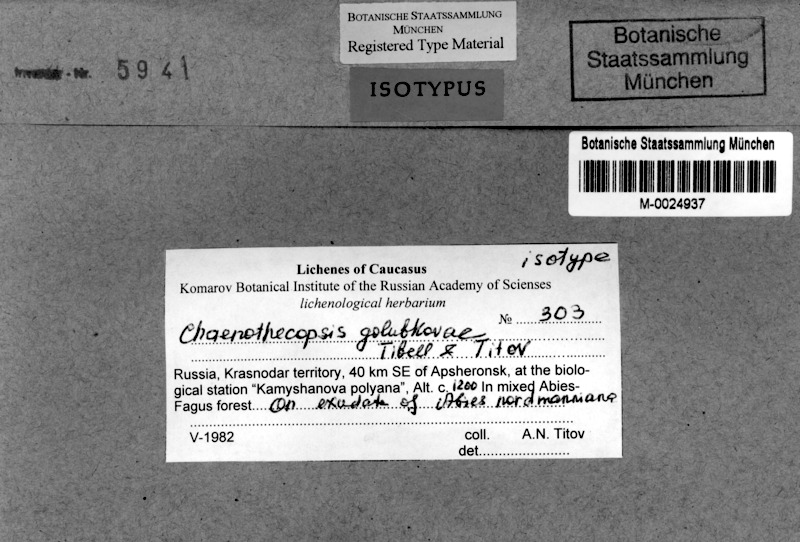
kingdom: Fungi
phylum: Ascomycota
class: Eurotiomycetes
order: Mycocaliciales
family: Mycocaliciaceae
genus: Chaenothecopsis
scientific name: Chaenothecopsis golubkovae
